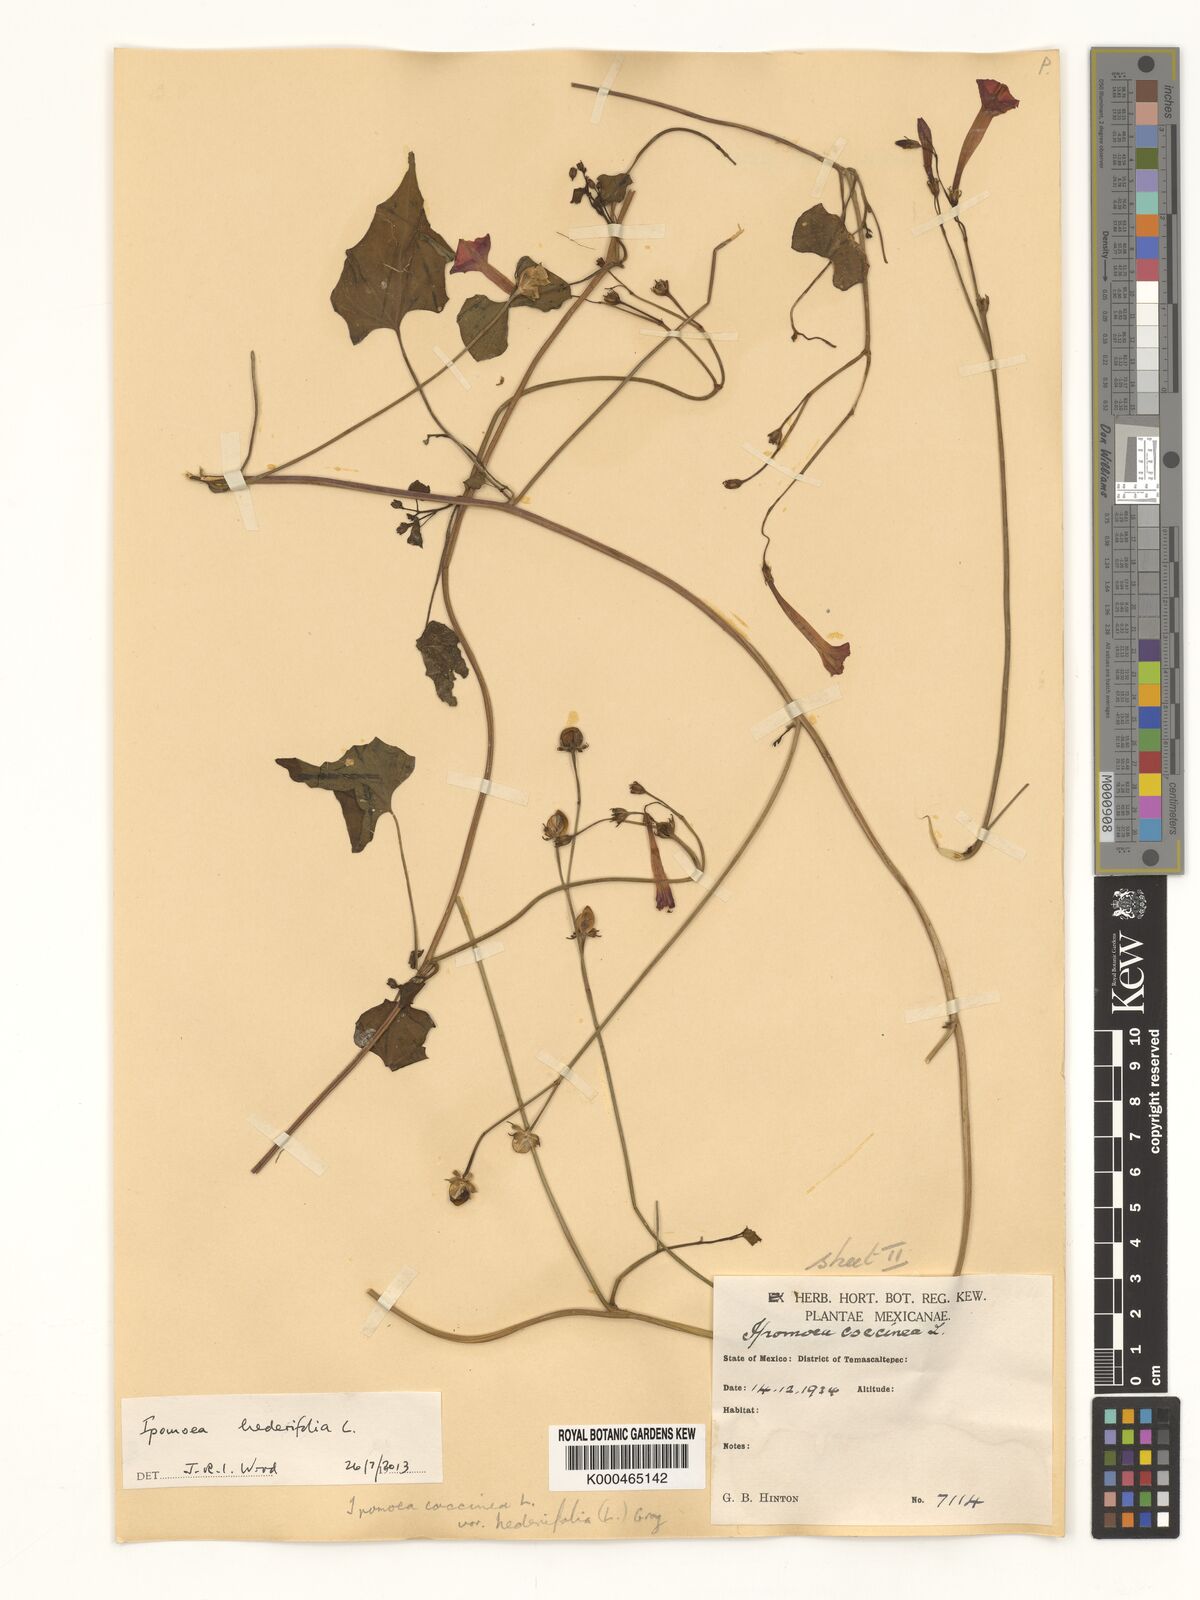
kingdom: Plantae
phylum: Tracheophyta
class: Magnoliopsida
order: Solanales
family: Convolvulaceae
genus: Ipomoea
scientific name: Ipomoea hederifolia
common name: Ivy-leaf morning-glory
